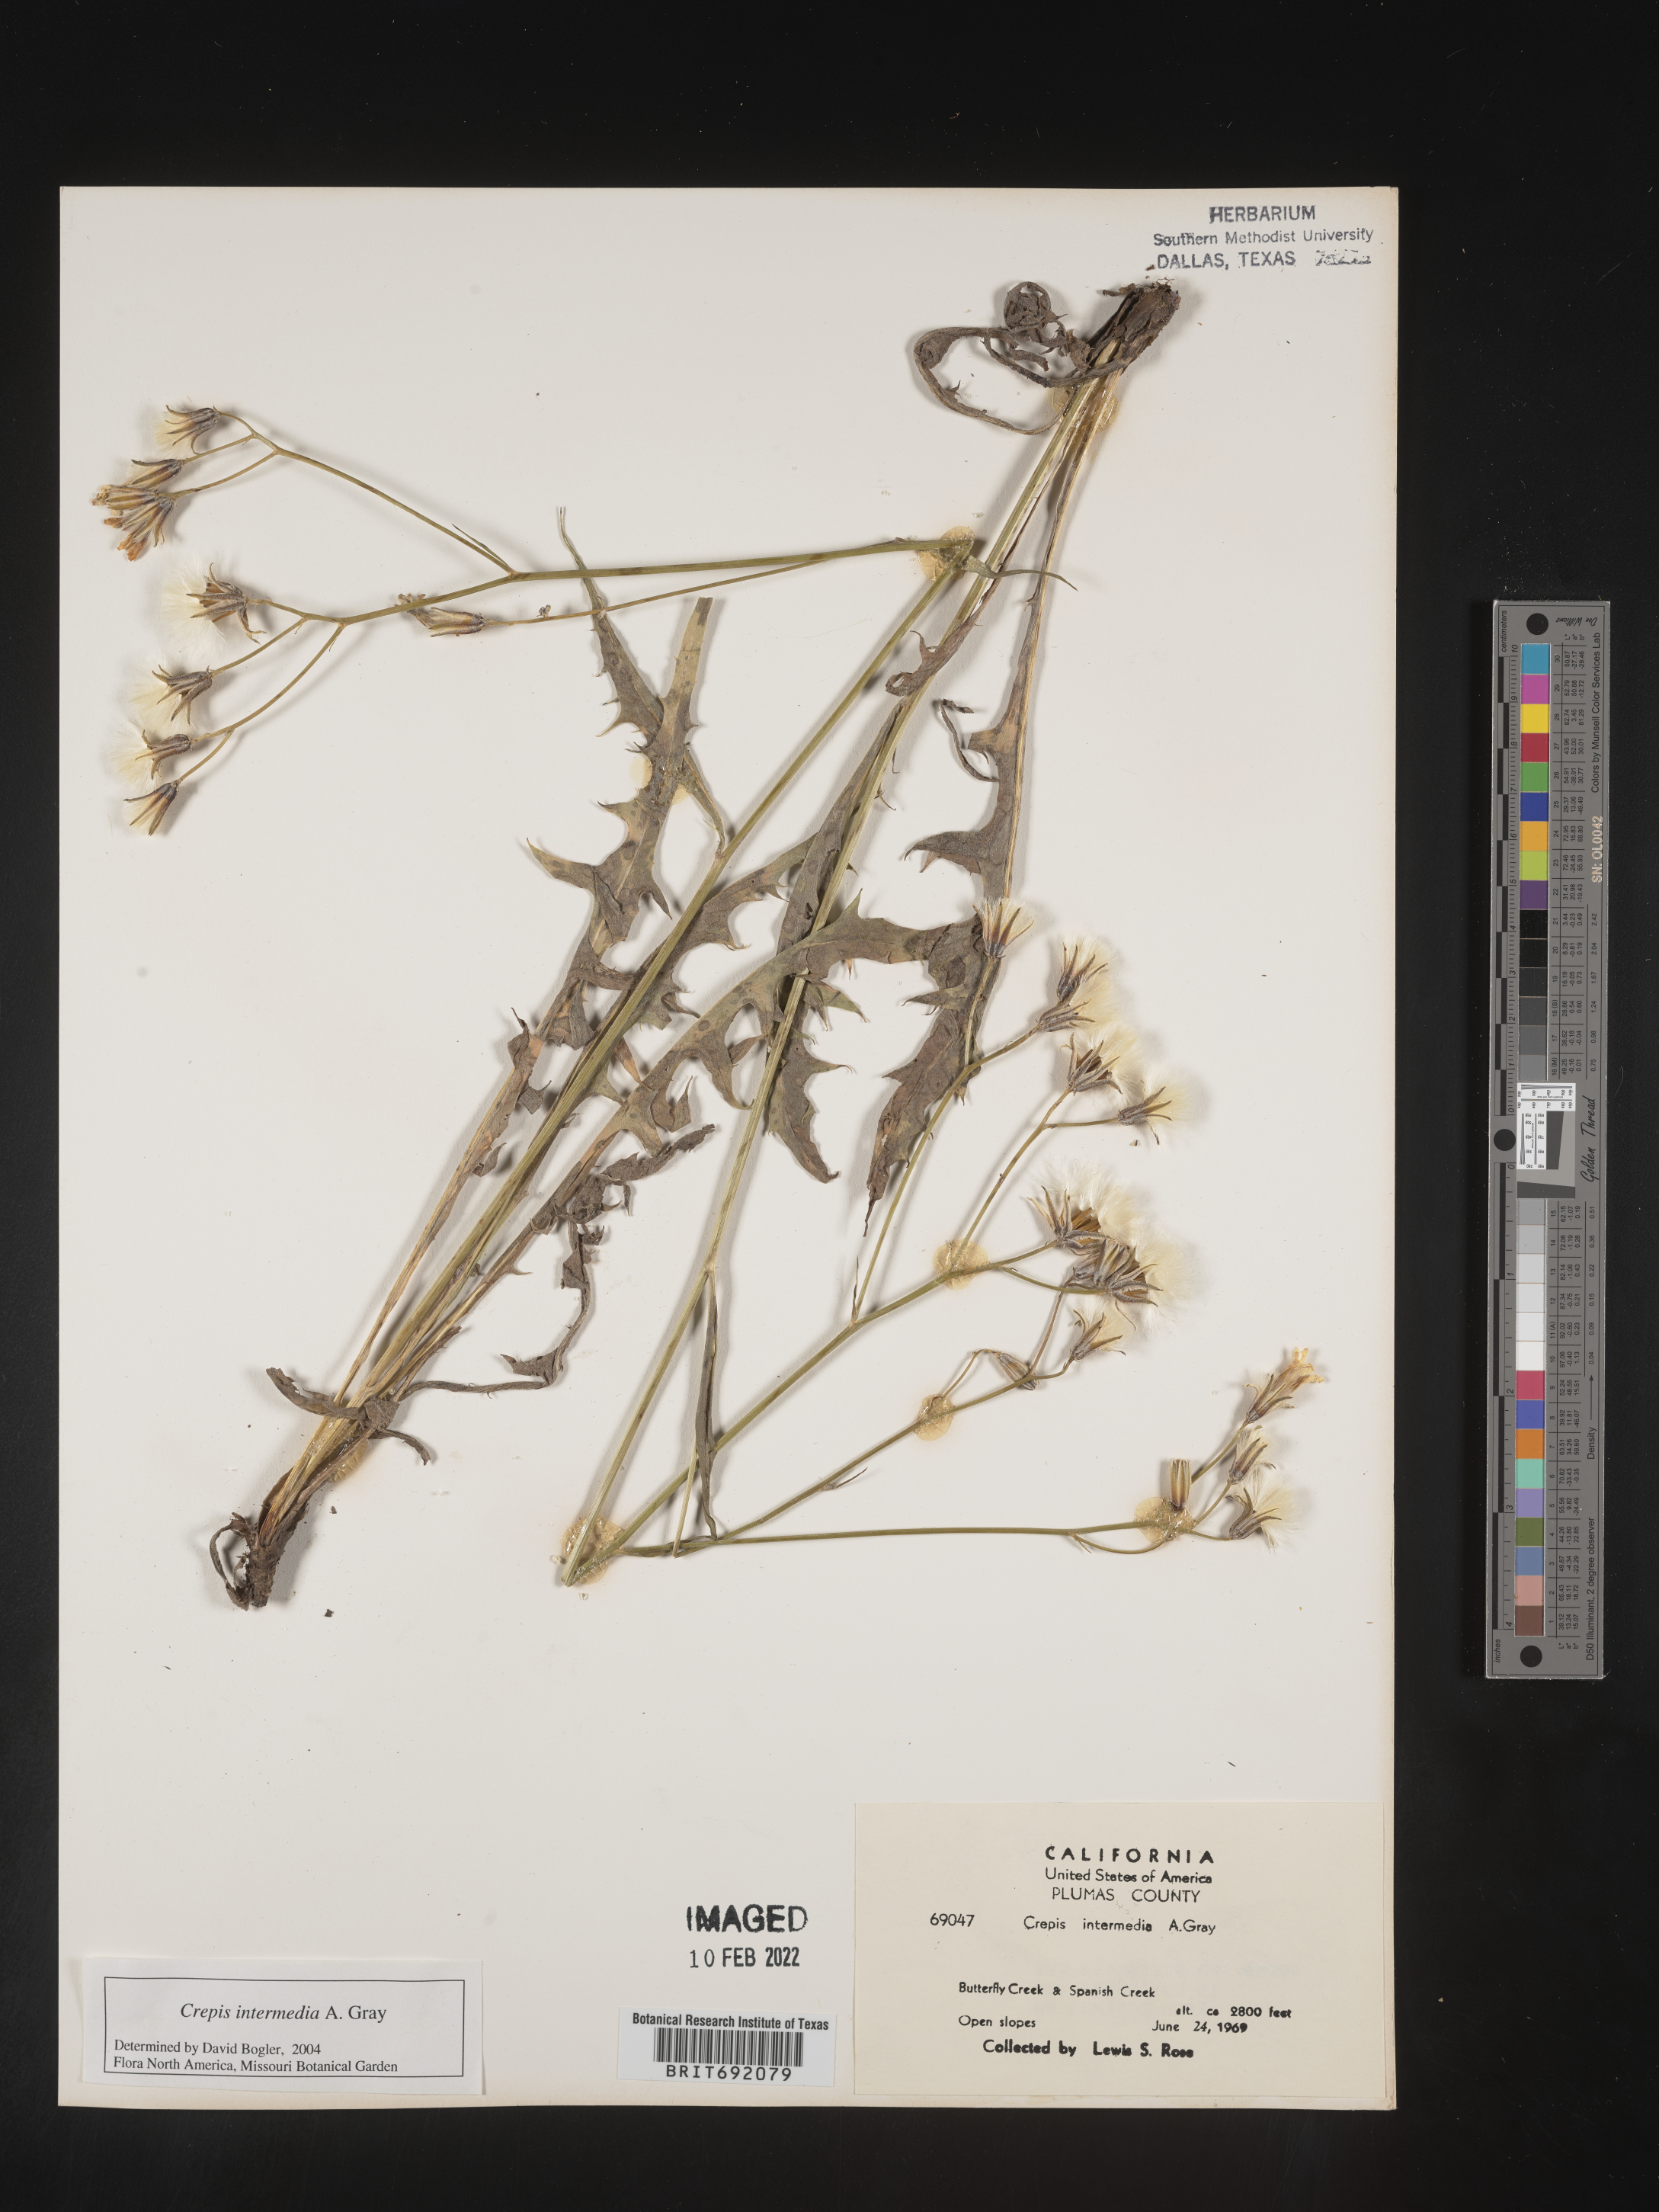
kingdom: Plantae
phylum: Tracheophyta
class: Magnoliopsida
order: Asterales
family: Asteraceae
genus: Crepis
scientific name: Crepis intermedia
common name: Limestone hawk's-beard
